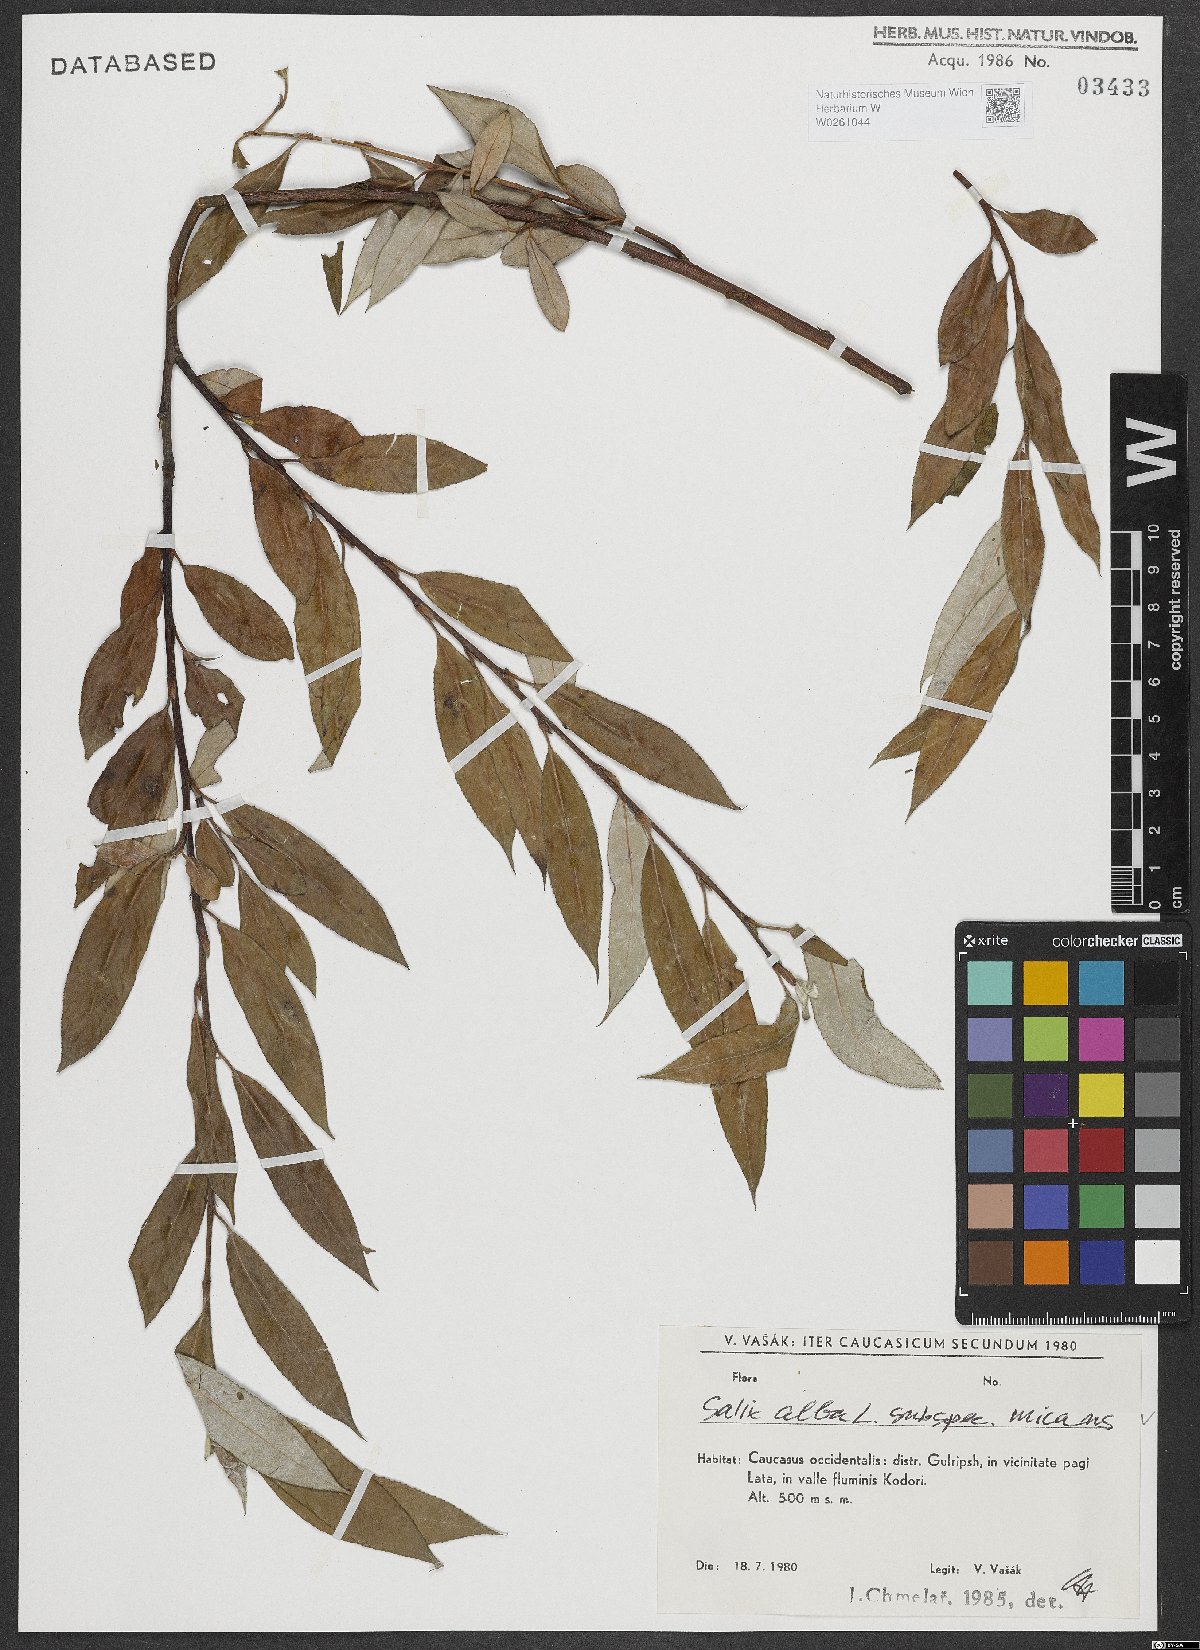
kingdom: Plantae
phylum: Tracheophyta
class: Magnoliopsida
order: Malpighiales
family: Salicaceae
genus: Salix
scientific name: Salix alba
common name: White willow
